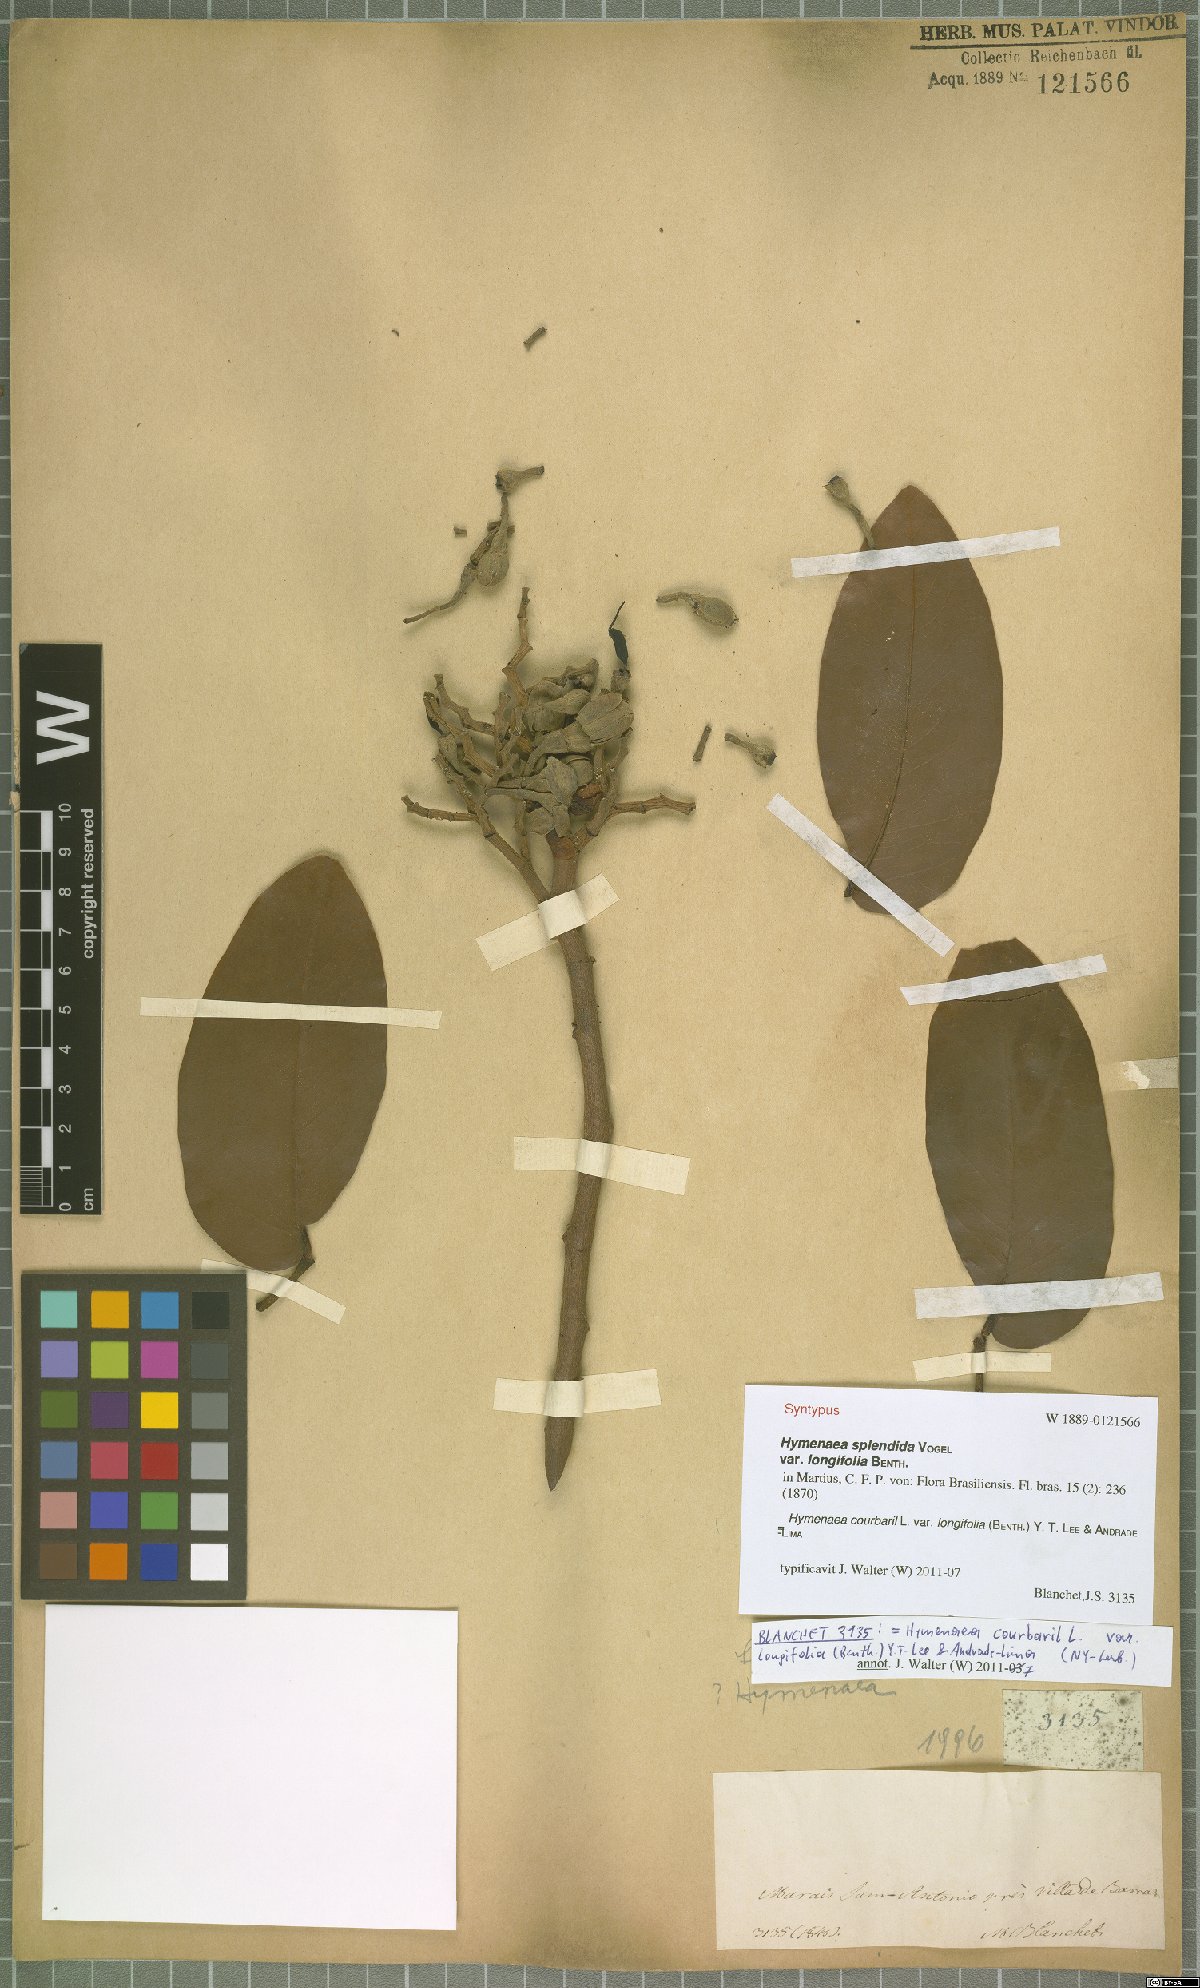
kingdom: Plantae
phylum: Tracheophyta
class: Magnoliopsida
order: Fabales
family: Fabaceae
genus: Hymenaea
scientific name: Hymenaea longifolia
